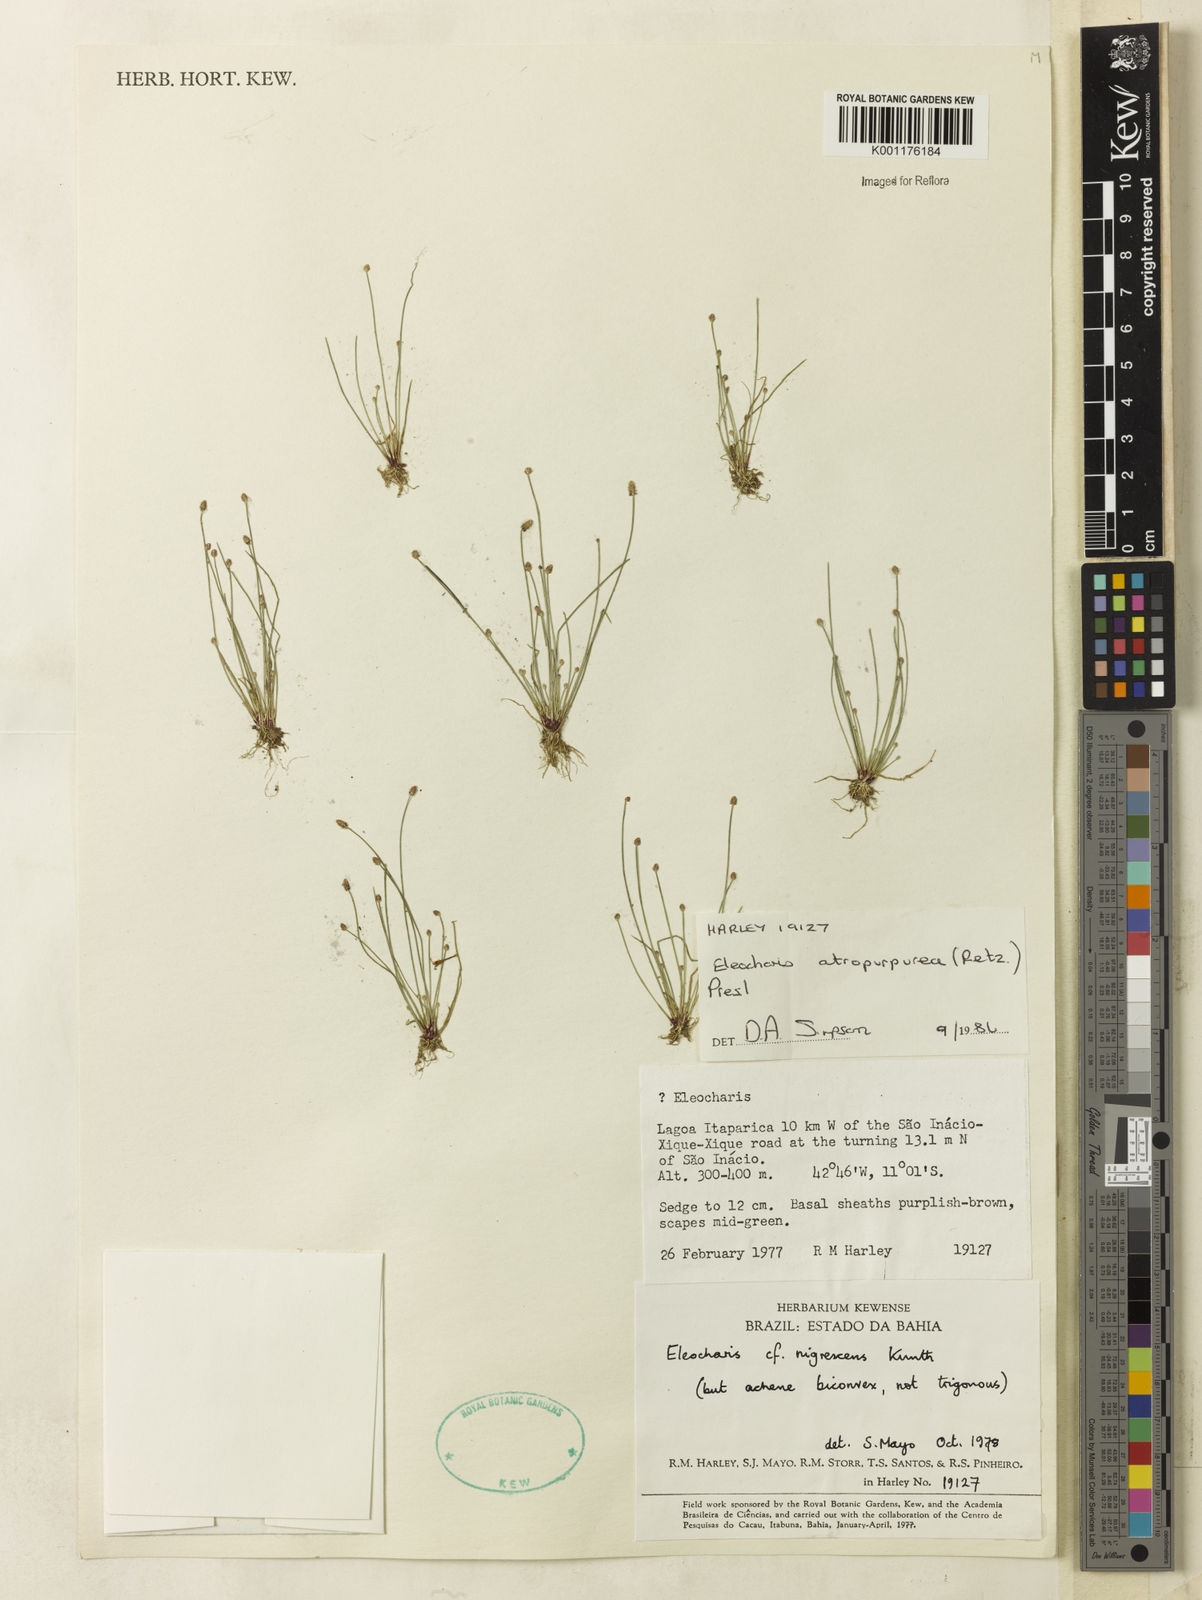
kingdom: Plantae
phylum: Tracheophyta
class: Liliopsida
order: Poales
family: Cyperaceae
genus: Eleocharis
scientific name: Eleocharis atropurpurea
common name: Purple spikerush
